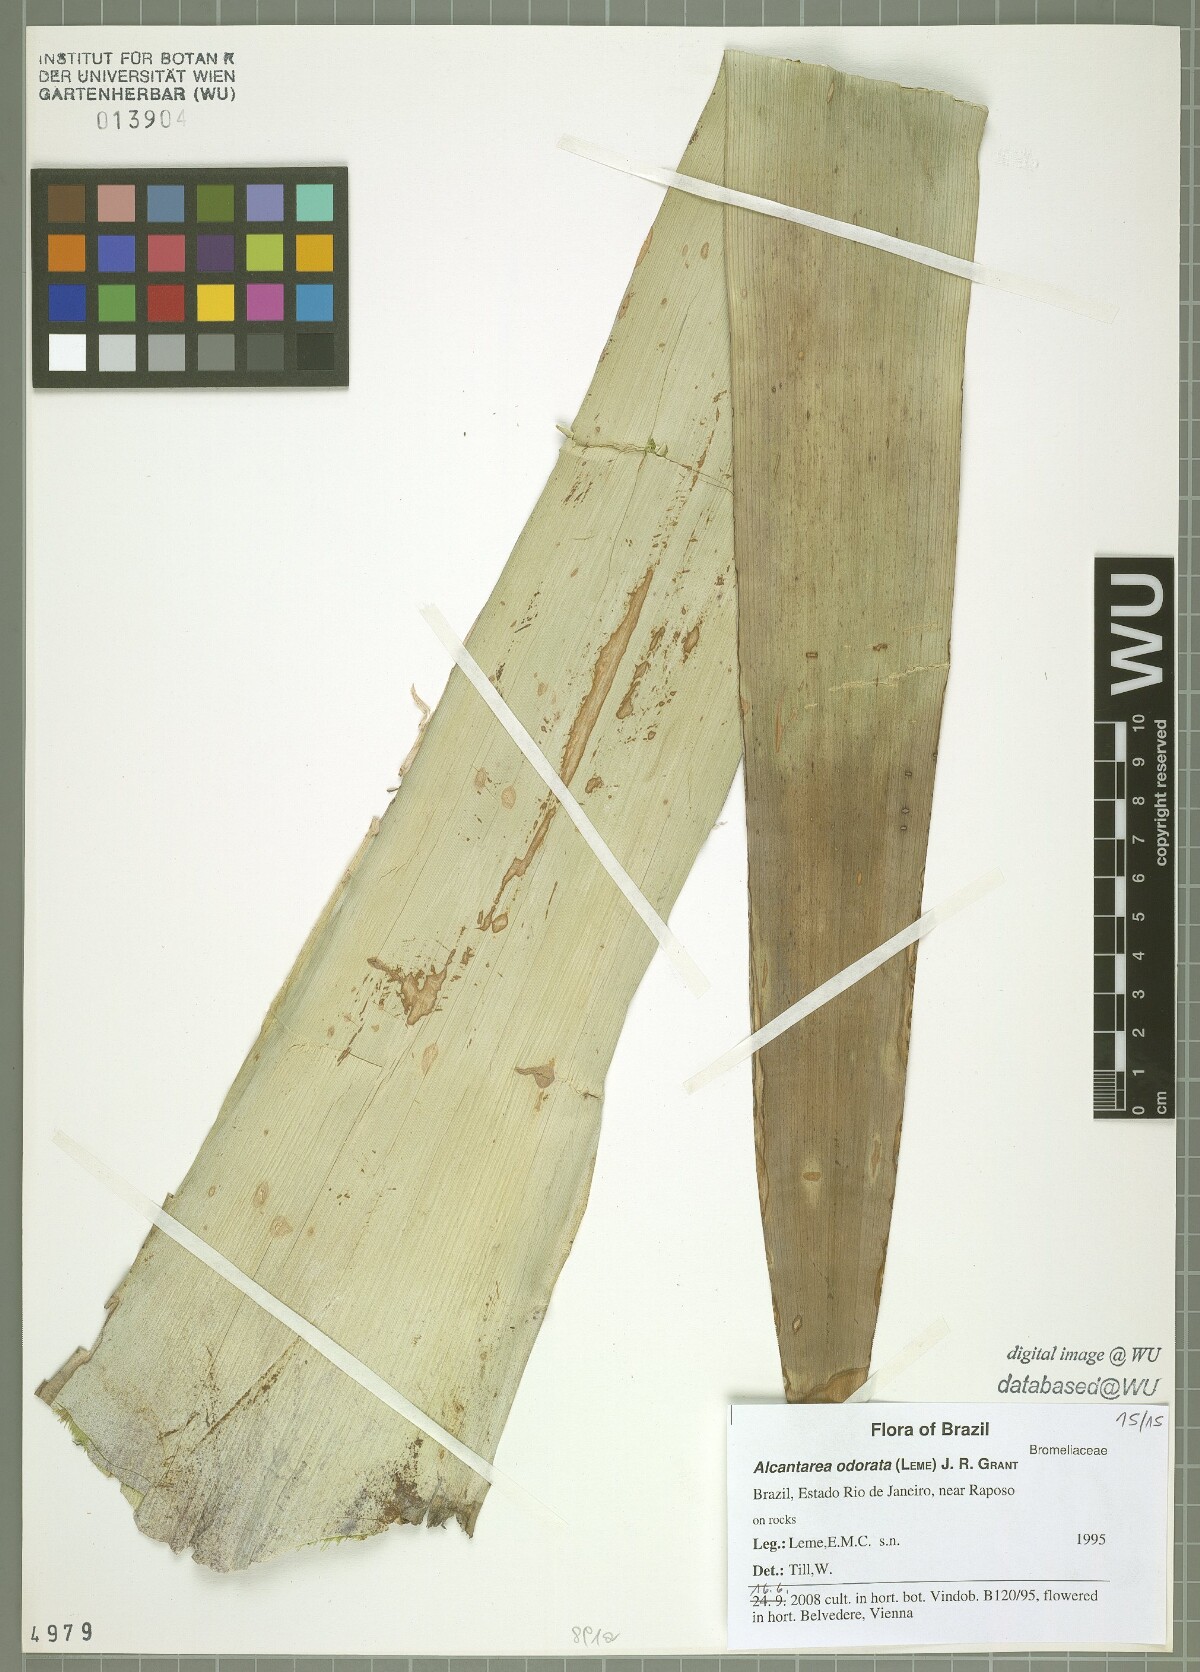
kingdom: Plantae
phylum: Tracheophyta
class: Liliopsida
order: Poales
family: Bromeliaceae
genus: Alcantarea
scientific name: Alcantarea odorata
